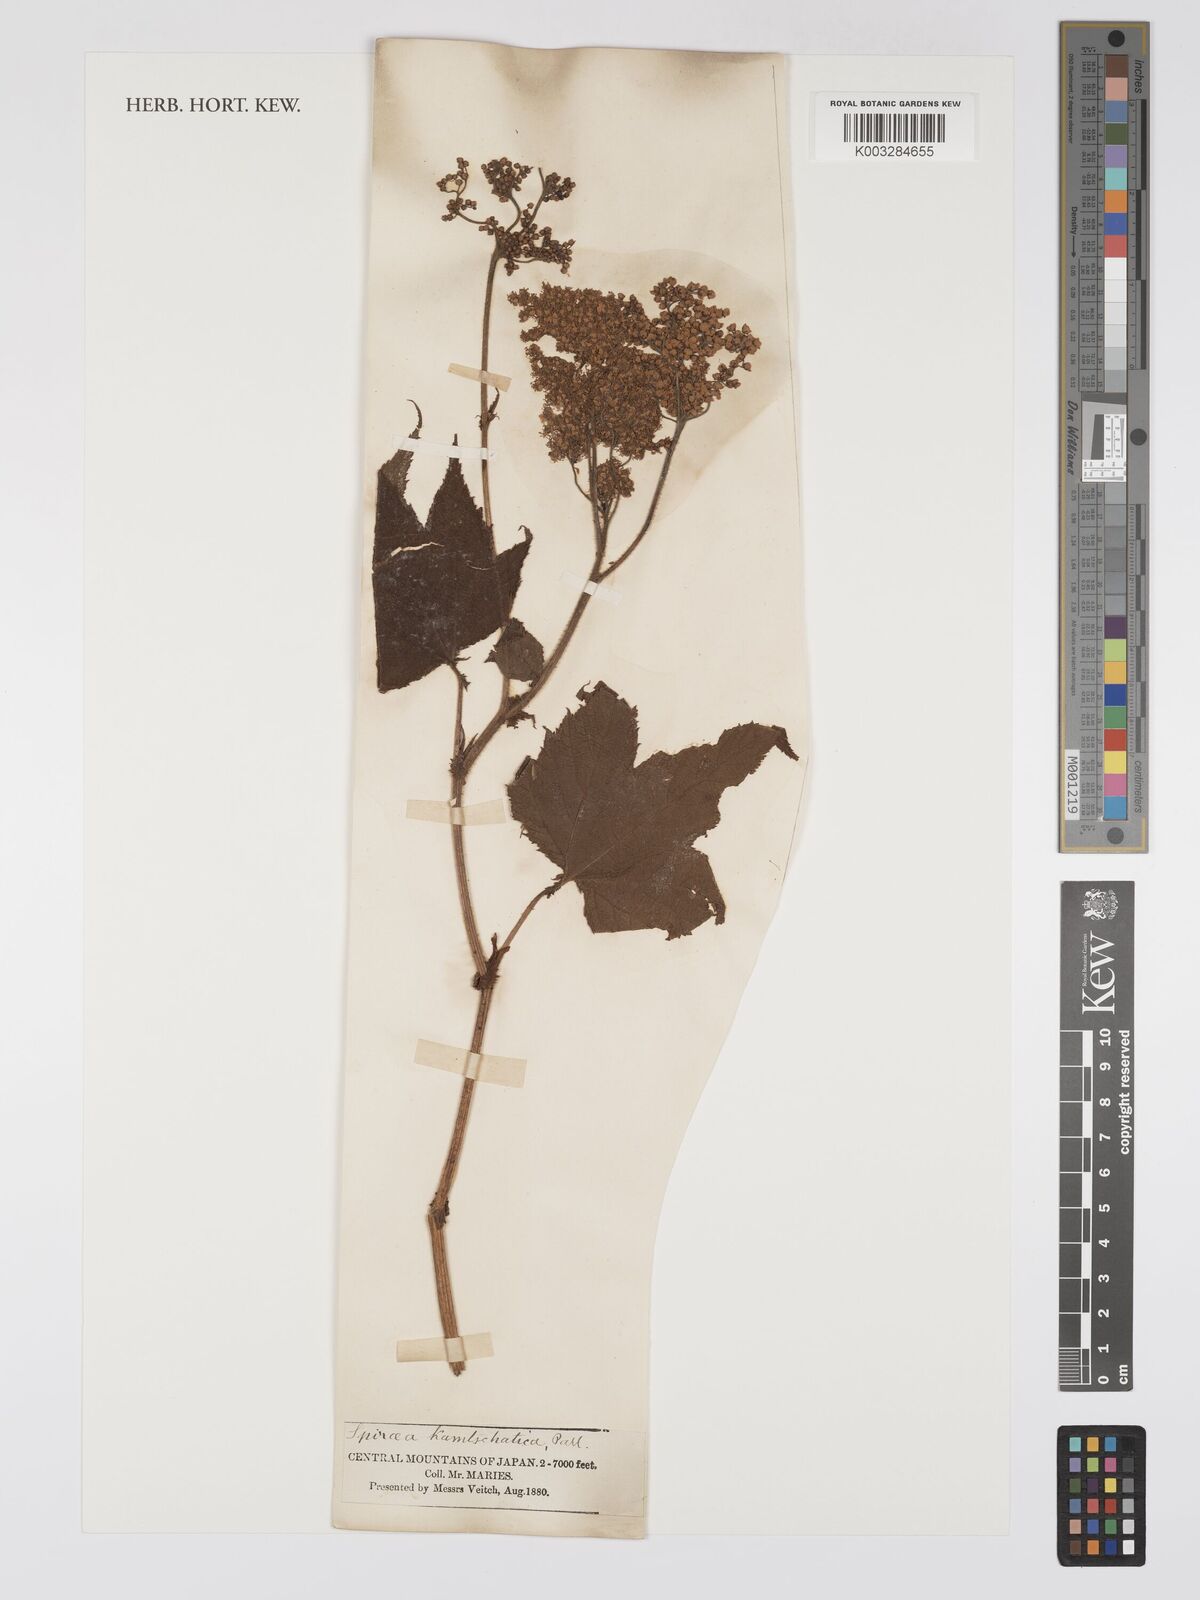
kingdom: Plantae
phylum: Tracheophyta
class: Magnoliopsida
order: Rosales
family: Rosaceae
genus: Spiraea
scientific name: Spiraea
